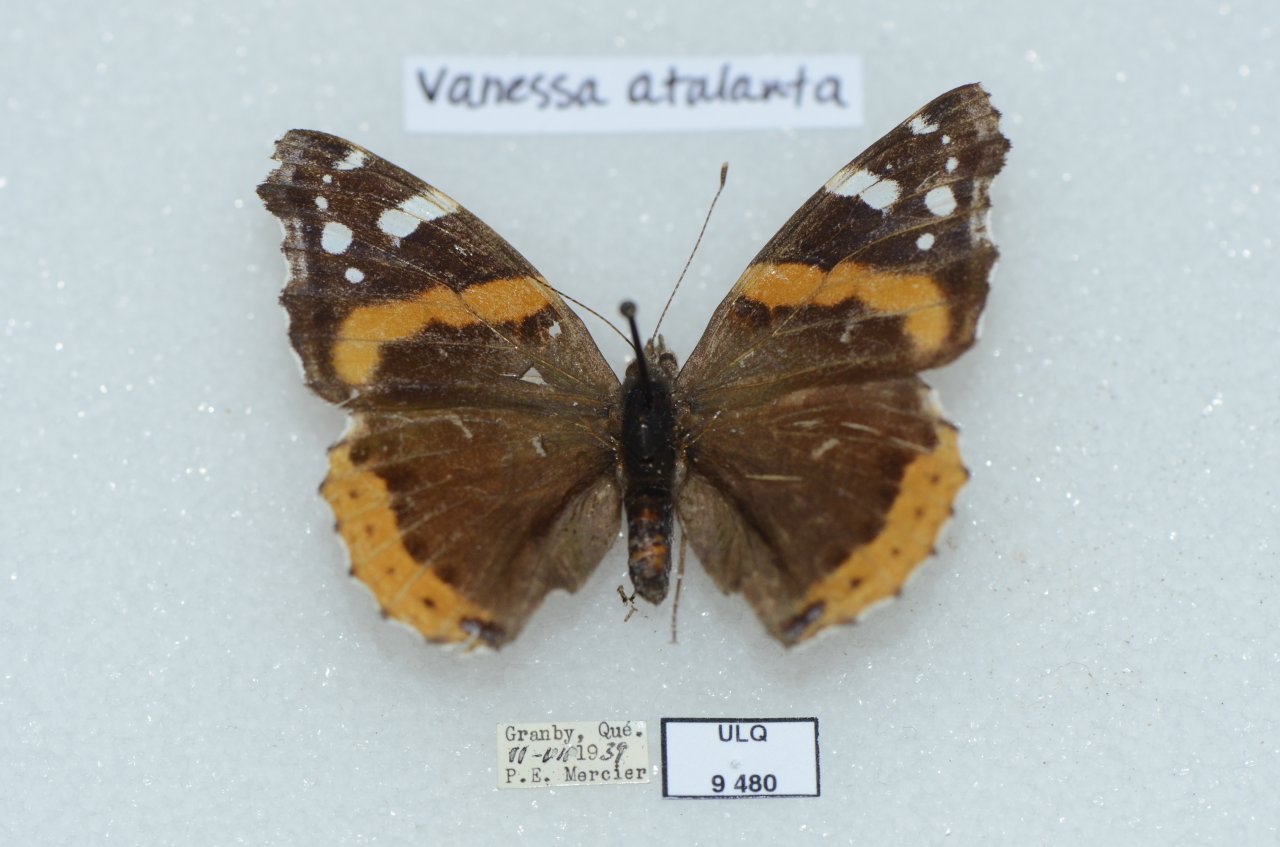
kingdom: Animalia
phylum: Arthropoda
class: Insecta
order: Lepidoptera
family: Nymphalidae
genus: Vanessa
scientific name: Vanessa atalanta
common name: Red Admiral
